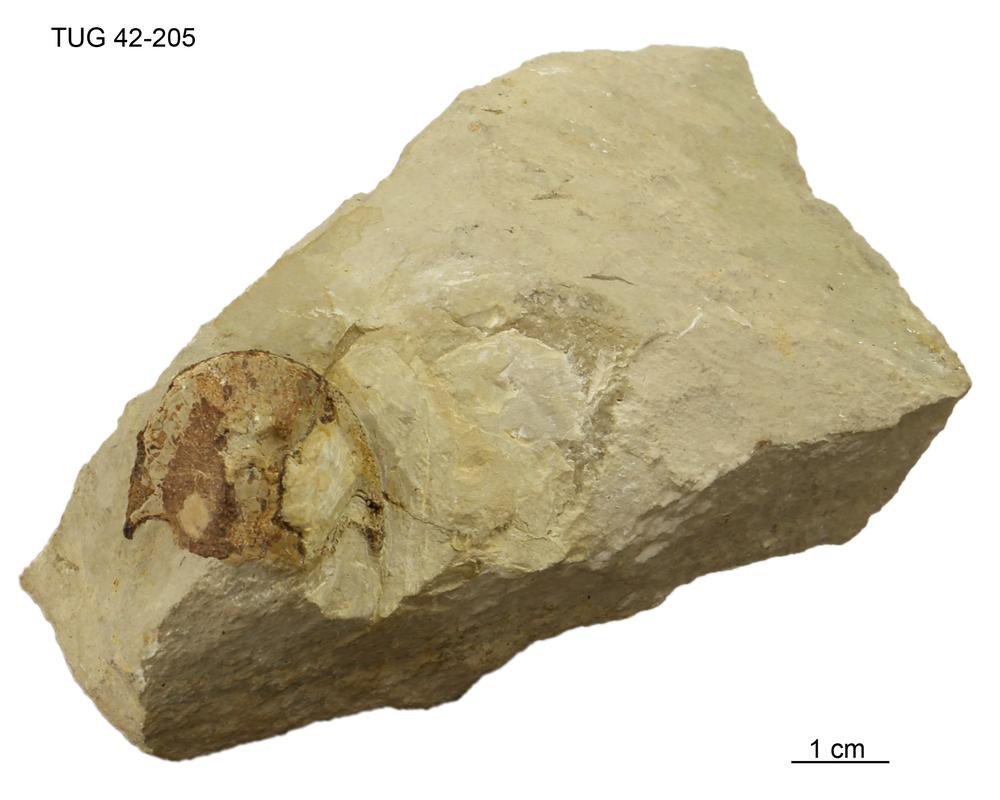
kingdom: Animalia
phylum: Chordata
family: Cephalaspididae
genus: Procephalaspis
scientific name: Procephalaspis
